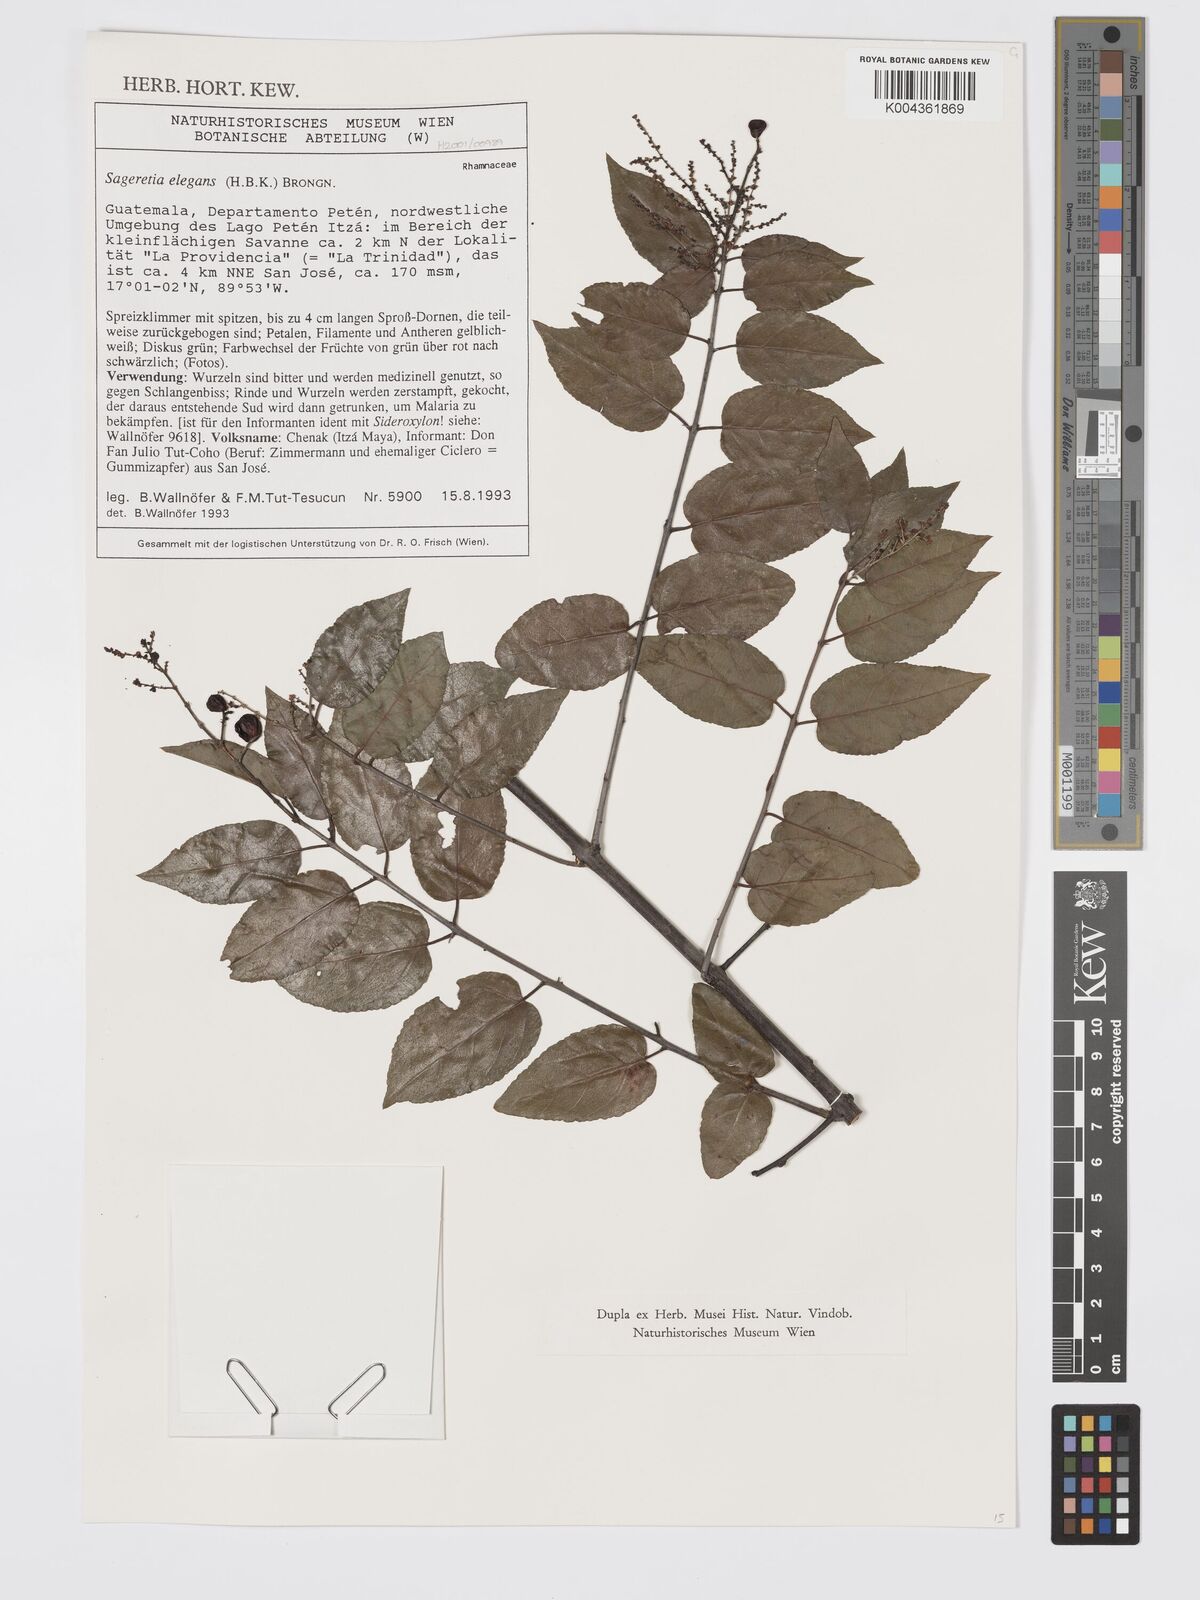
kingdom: Plantae
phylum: Tracheophyta
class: Magnoliopsida
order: Rosales
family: Rhamnaceae
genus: Sageretia
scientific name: Sageretia elegans
